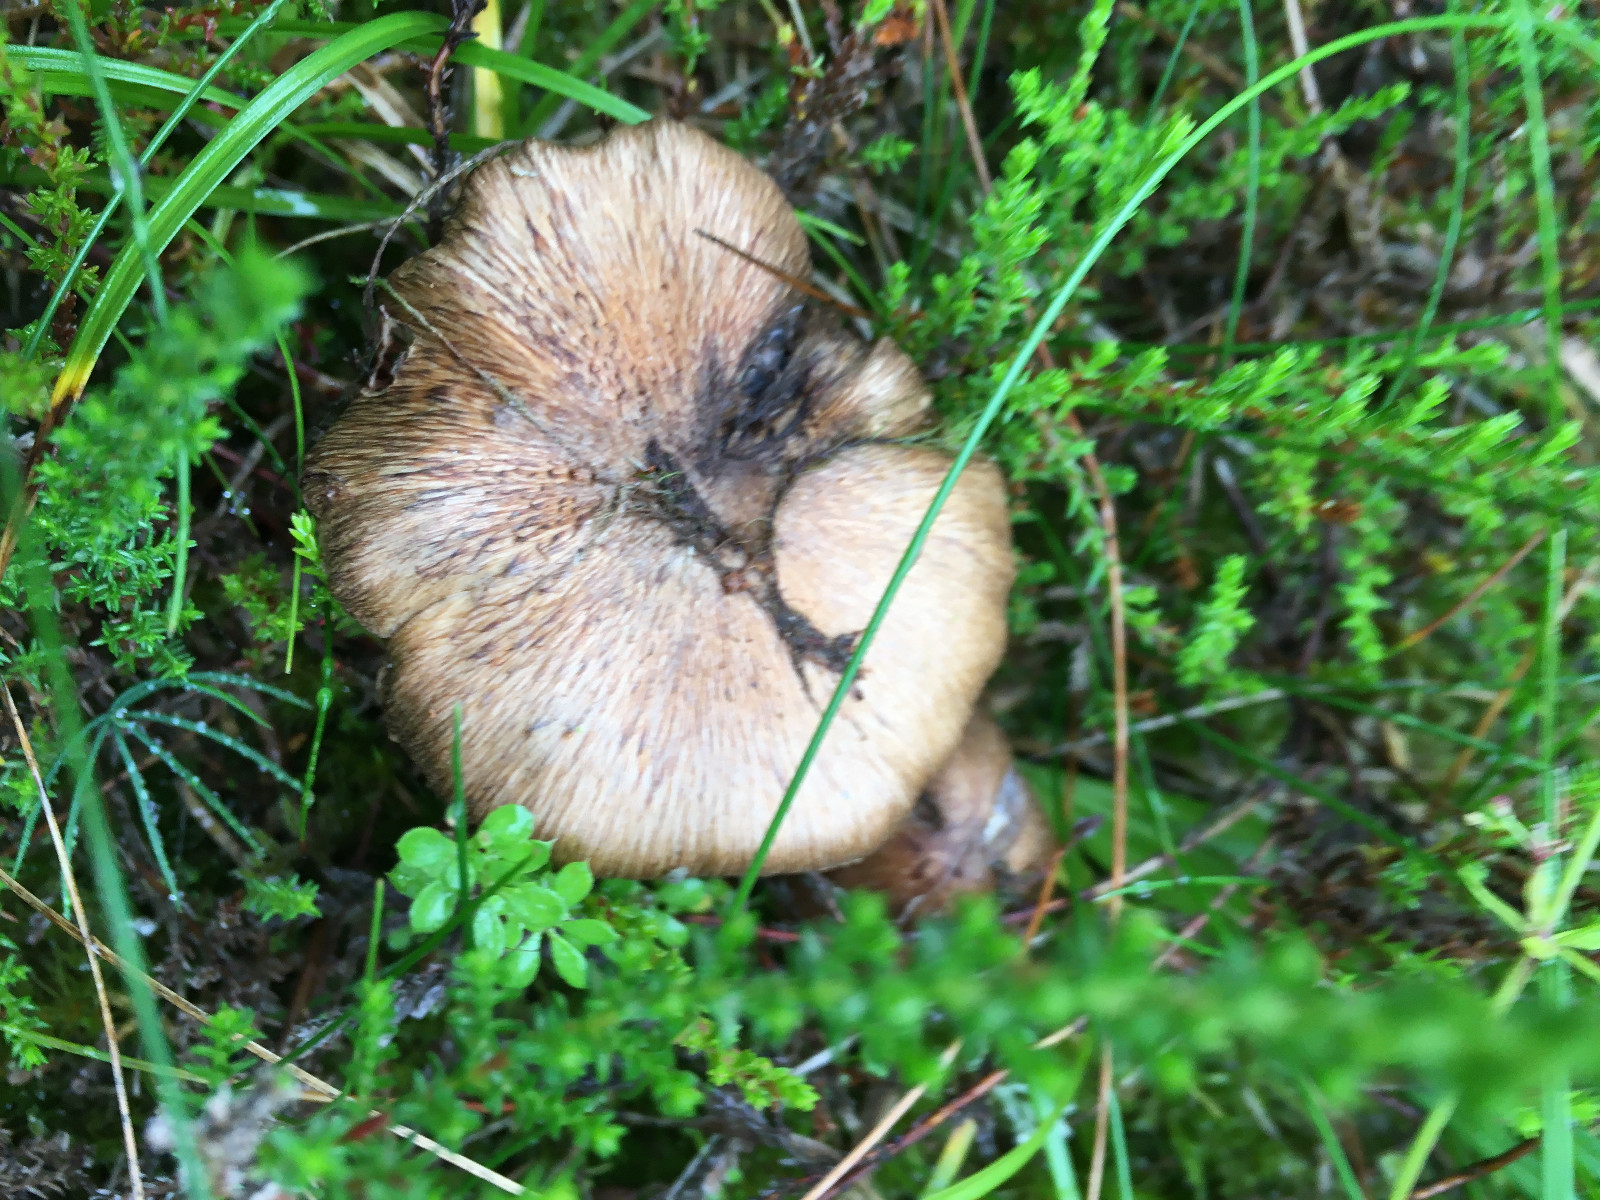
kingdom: Fungi
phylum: Basidiomycota
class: Agaricomycetes
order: Agaricales
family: Inocybaceae
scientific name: Inocybaceae
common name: trævlhatfamilien
